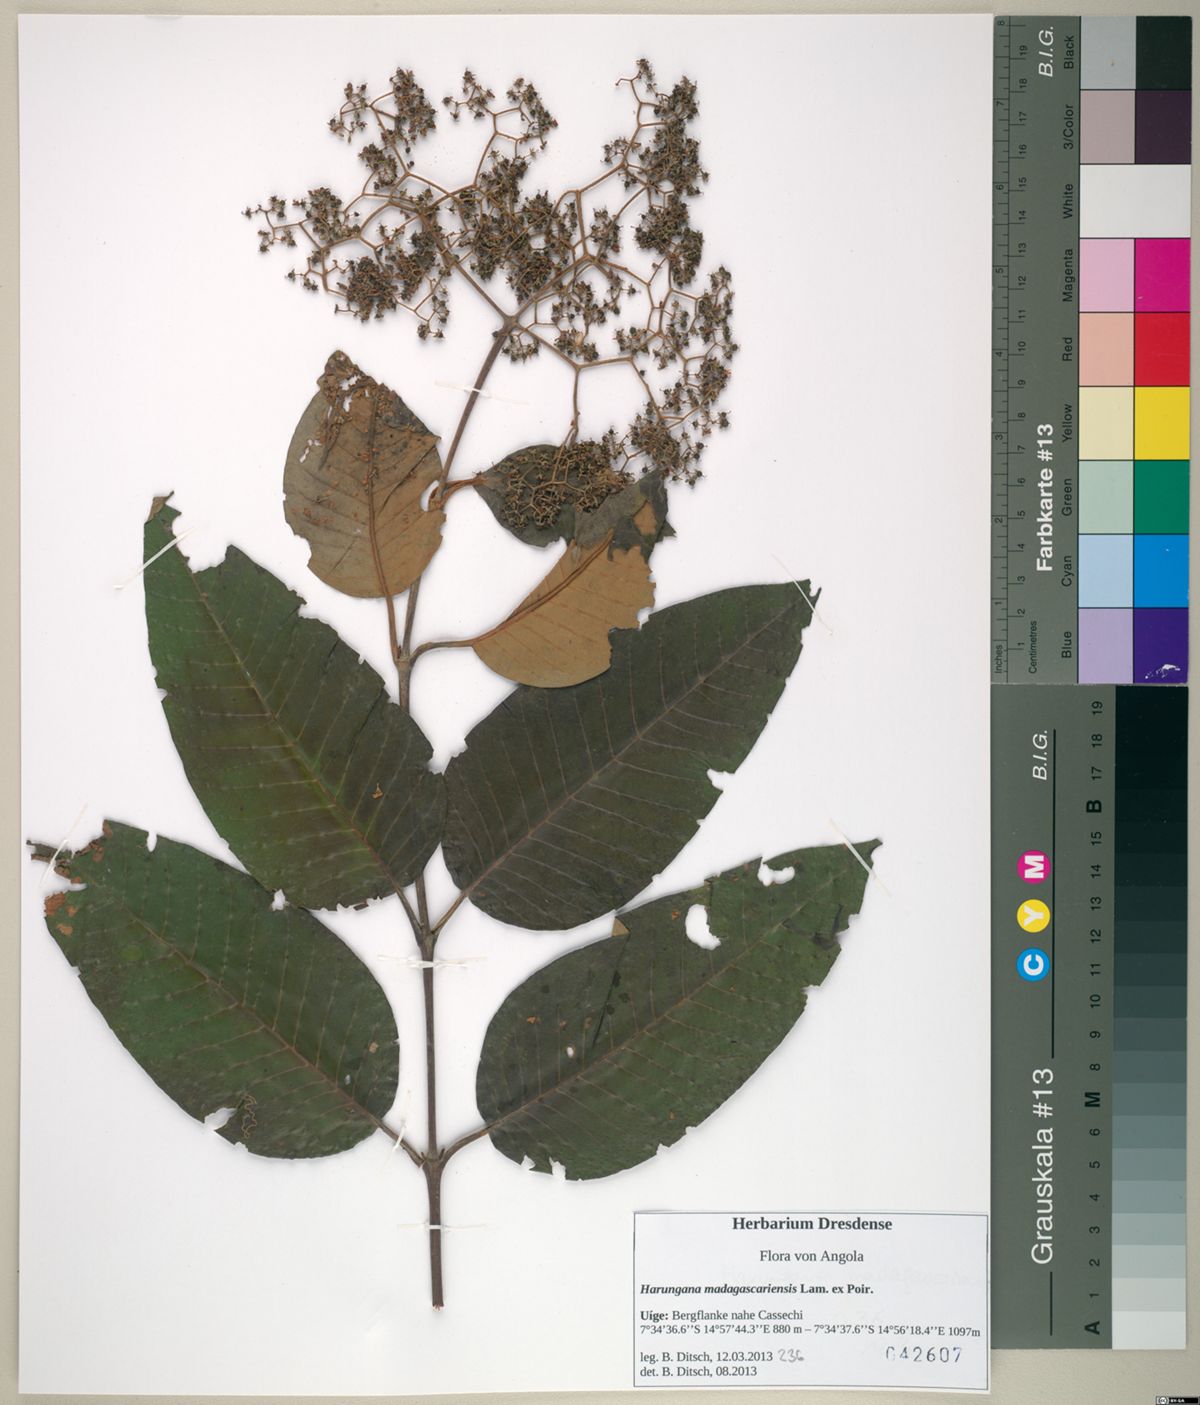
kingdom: Plantae
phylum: Tracheophyta
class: Magnoliopsida
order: Malpighiales
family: Hypericaceae
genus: Harungana
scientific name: Harungana madagascariensis
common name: Orange milktree
